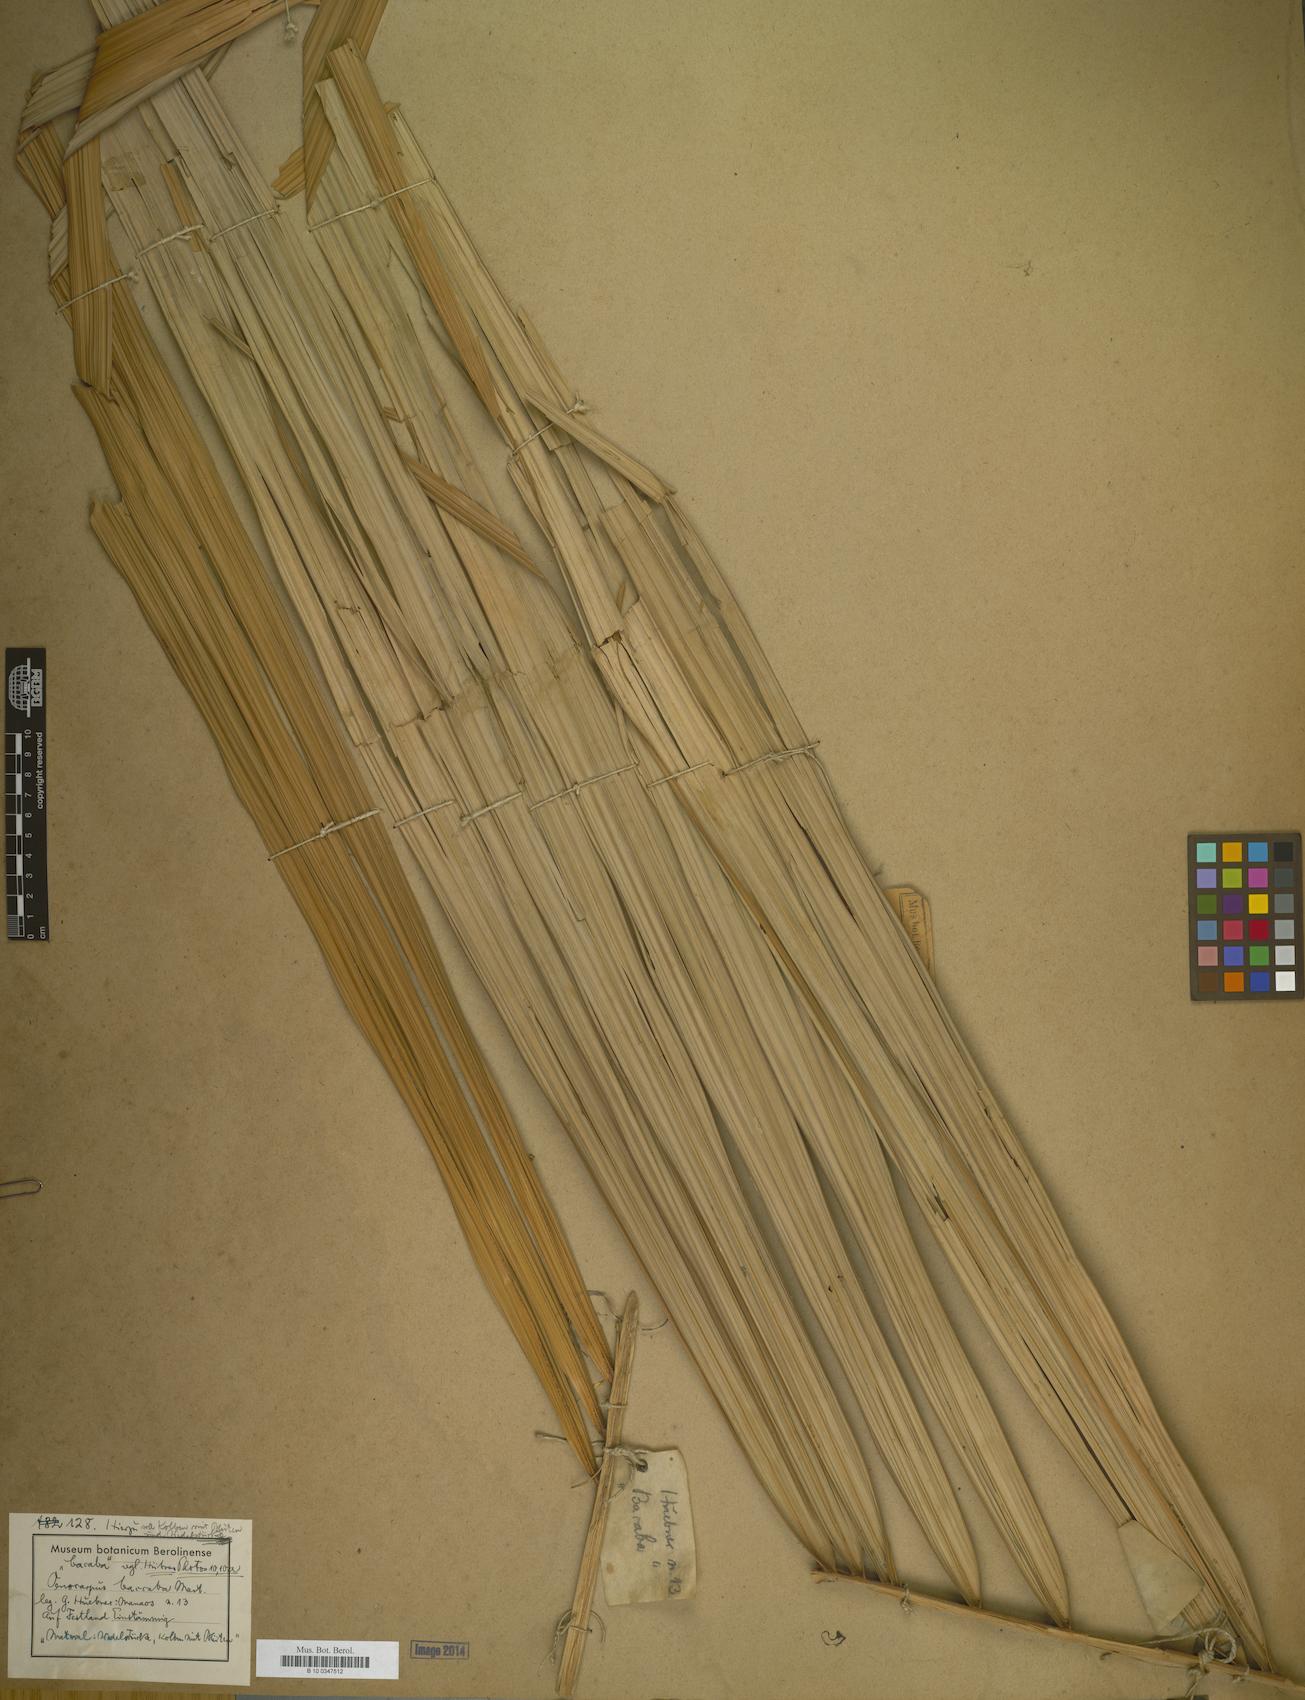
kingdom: Plantae
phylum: Tracheophyta
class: Liliopsida
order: Arecales
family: Arecaceae
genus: Oenocarpus
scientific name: Oenocarpus bacaba
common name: Bacaba palm
